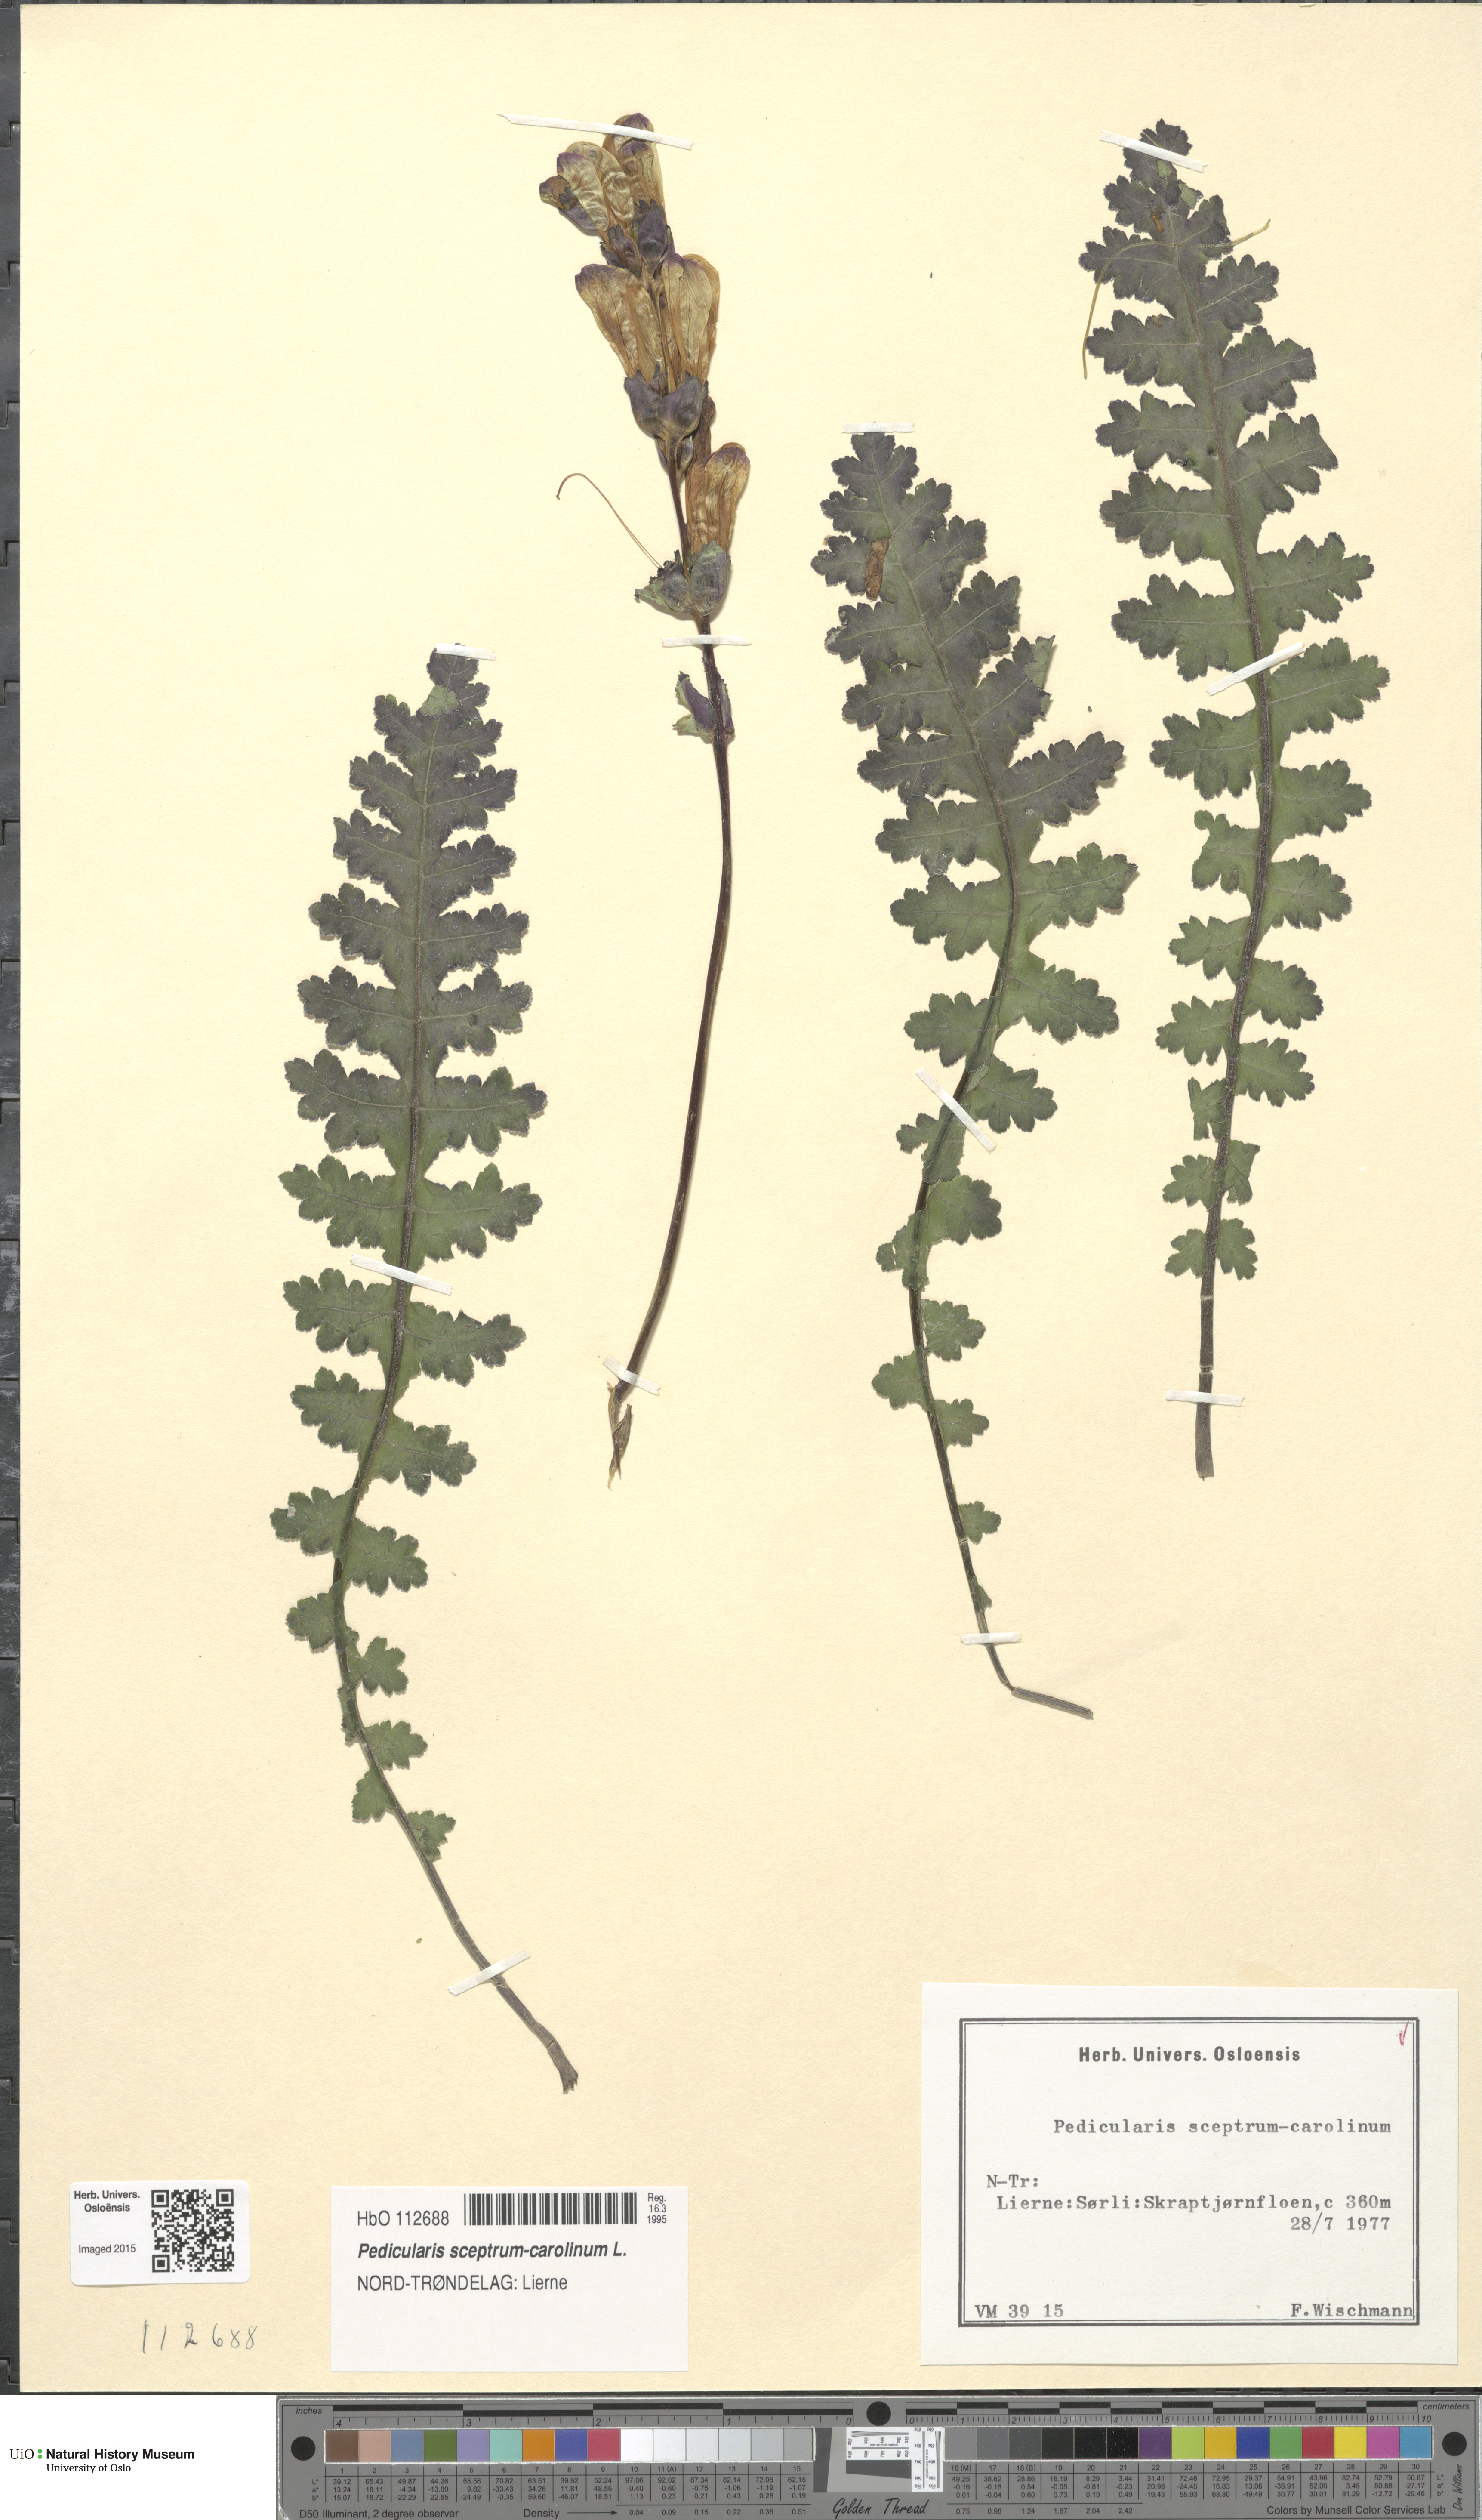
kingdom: Plantae
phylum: Tracheophyta
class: Magnoliopsida
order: Lamiales
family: Orobanchaceae
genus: Pedicularis
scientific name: Pedicularis sceptrum-carolinum
